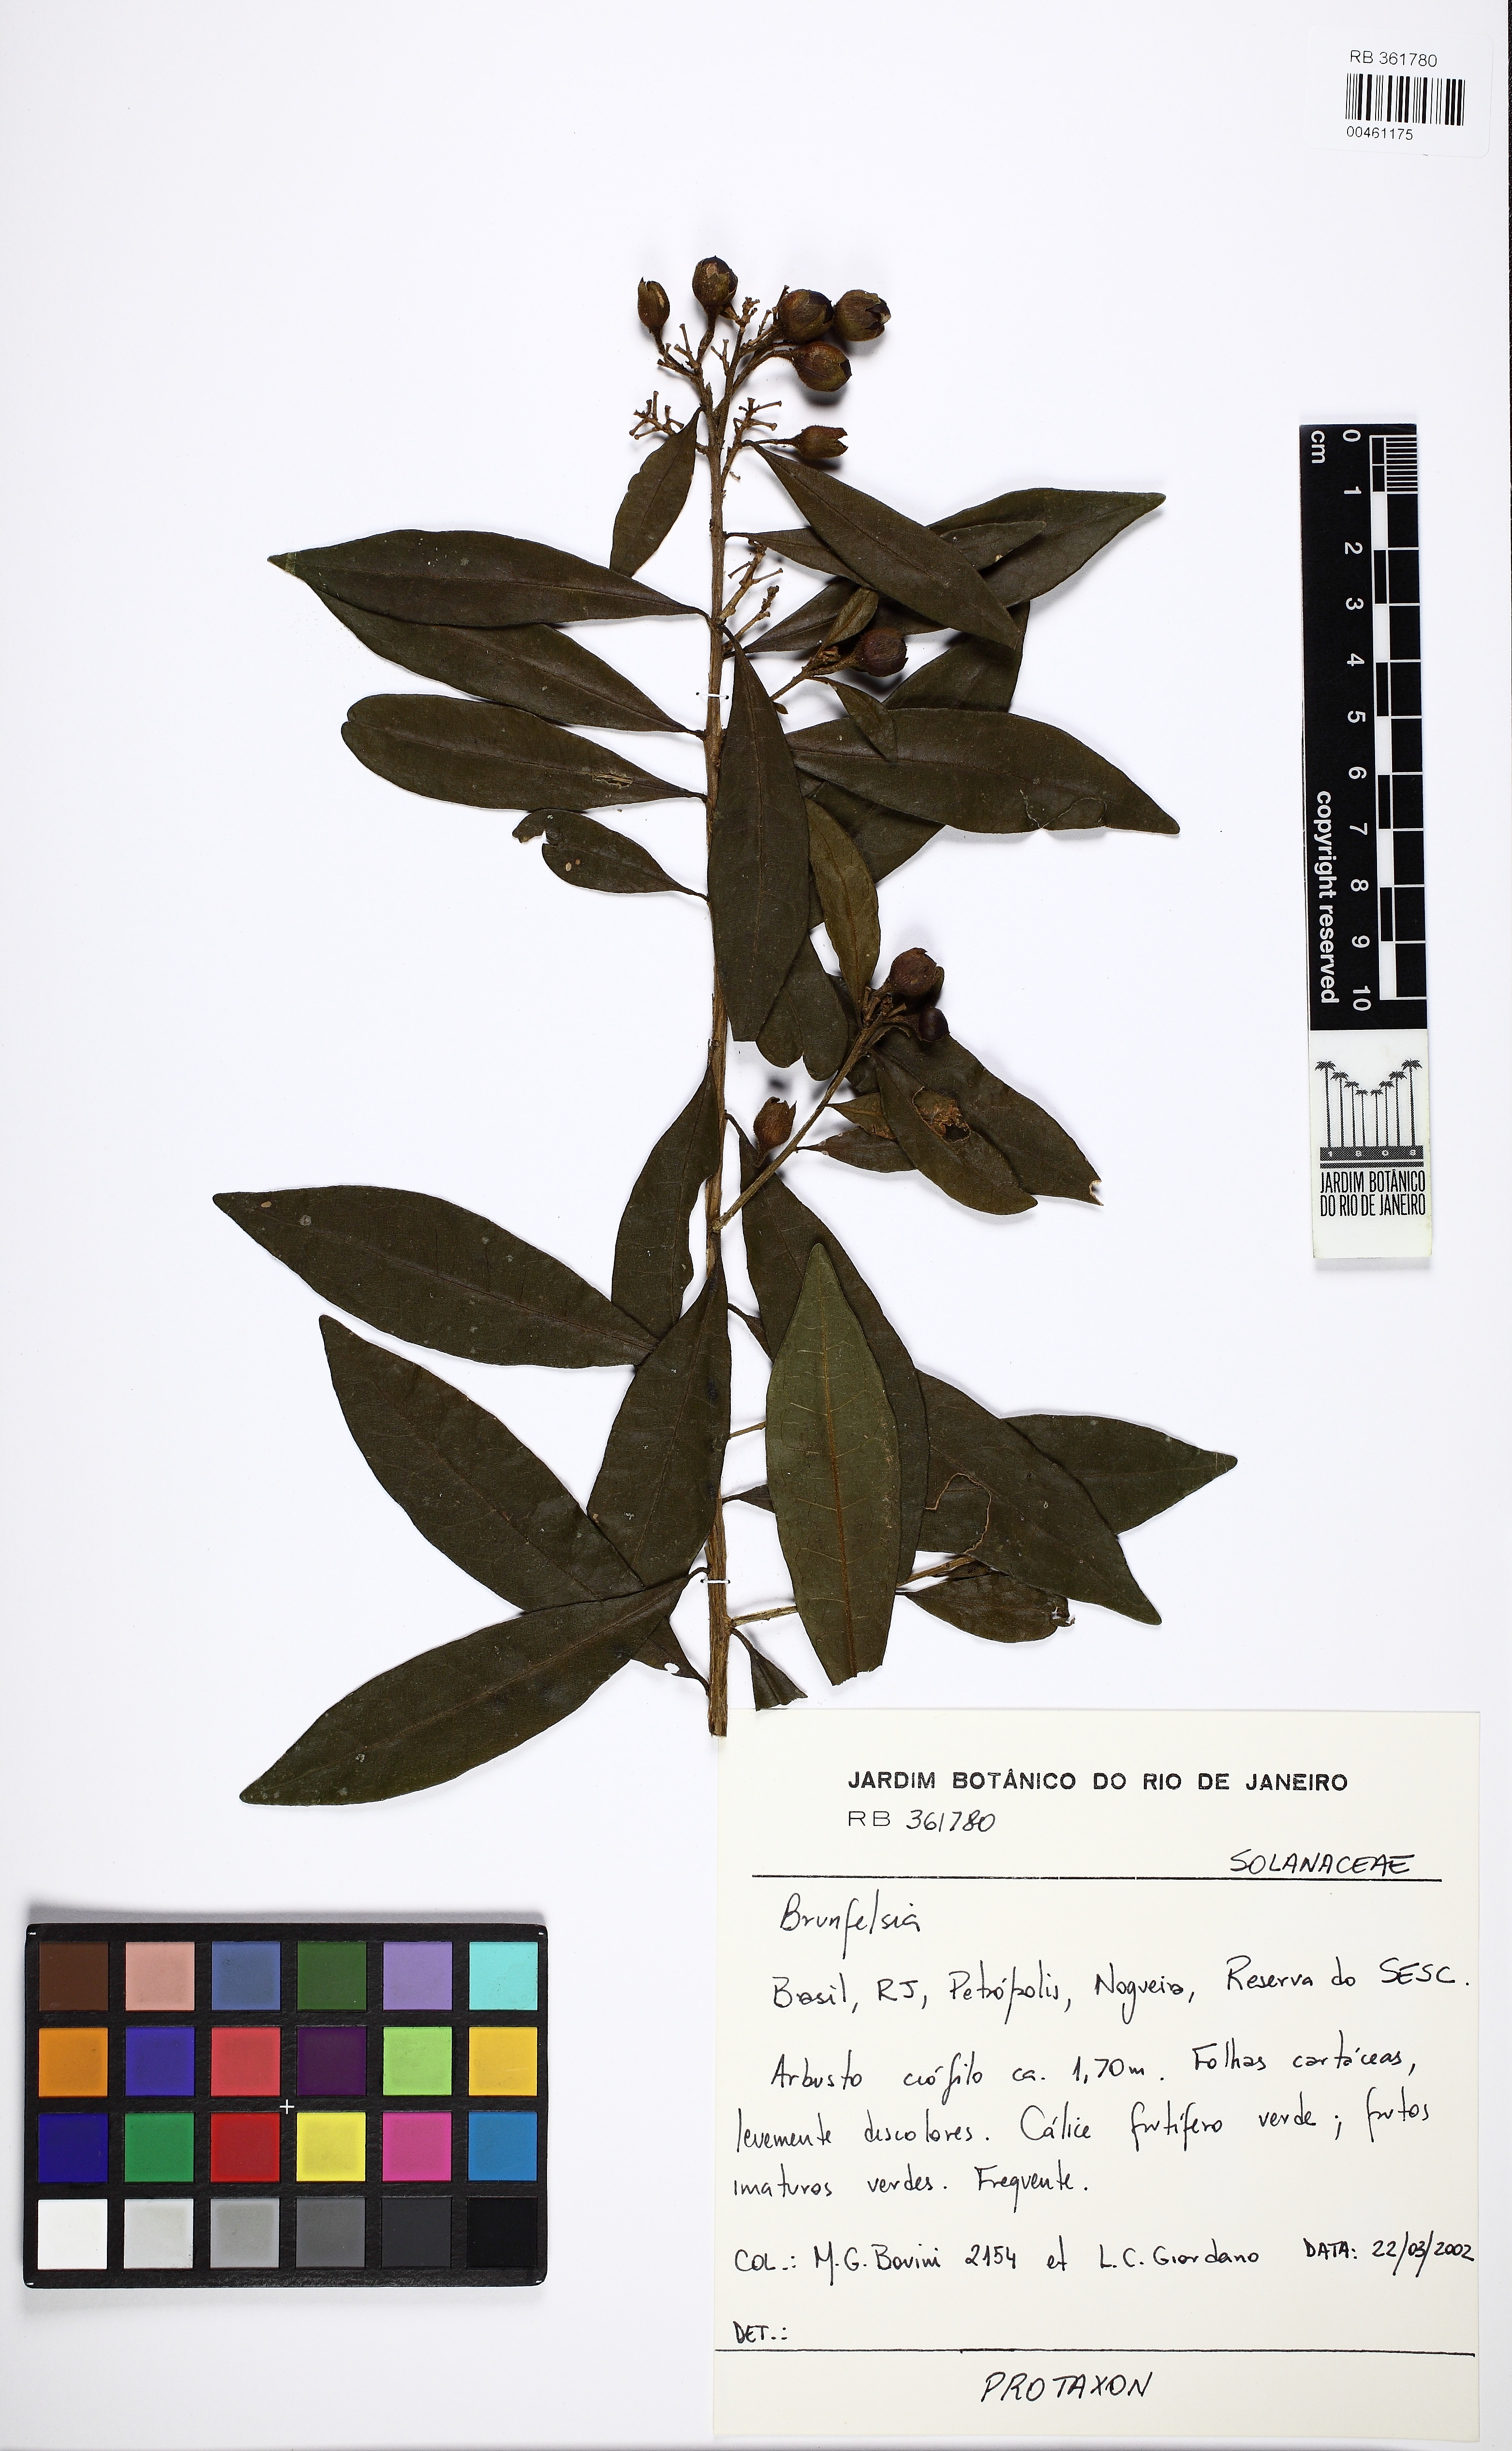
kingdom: Plantae
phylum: Tracheophyta
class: Magnoliopsida
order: Solanales
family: Solanaceae
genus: Brunfelsia
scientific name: Brunfelsia brasiliensis
